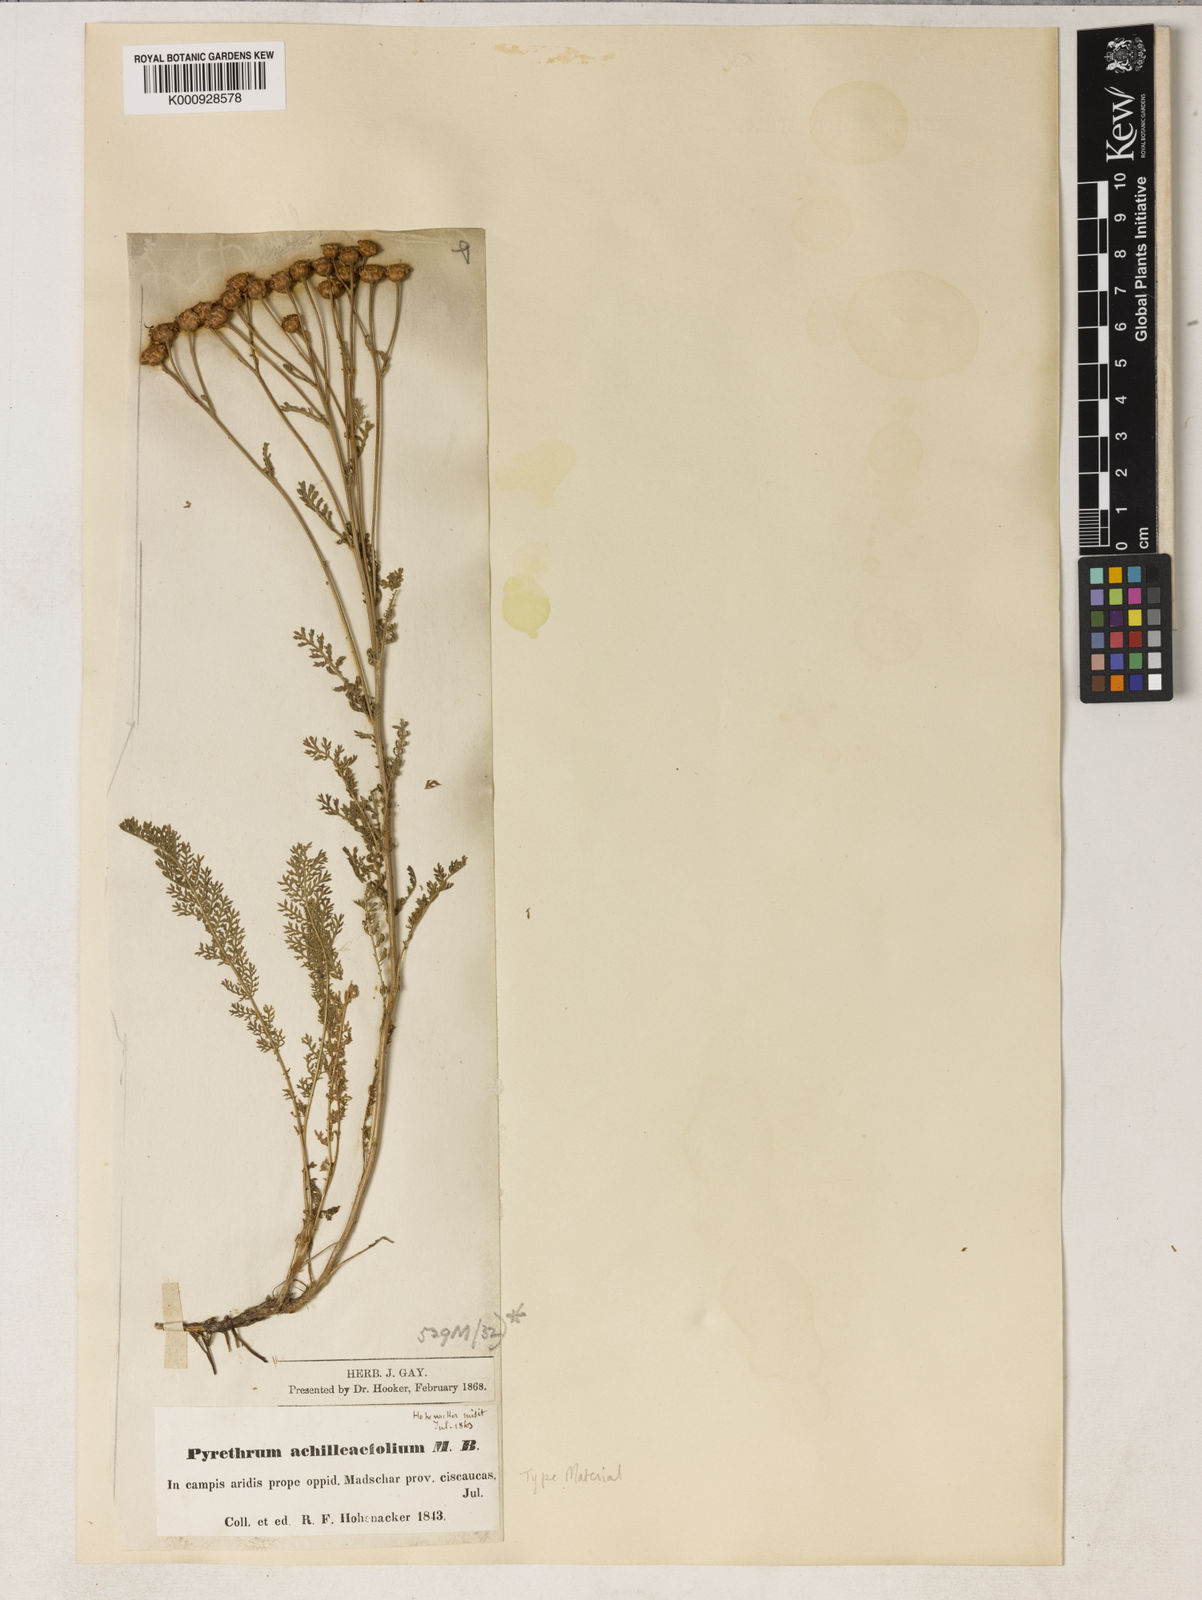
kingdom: Plantae
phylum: Tracheophyta
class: Magnoliopsida
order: Asterales
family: Asteraceae
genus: Tanacetum
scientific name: Tanacetum achilleifolium
